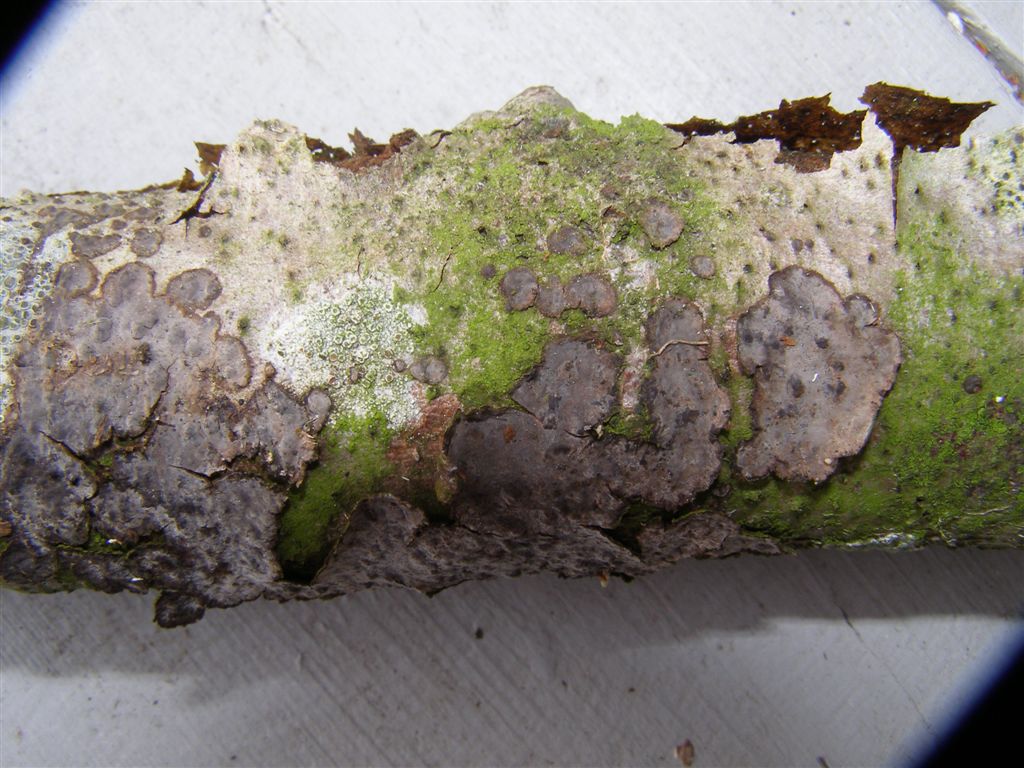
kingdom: Fungi
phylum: Basidiomycota
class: Agaricomycetes
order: Russulales
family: Peniophoraceae
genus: Peniophora
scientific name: Peniophora rufomarginata
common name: linde-voksskind
